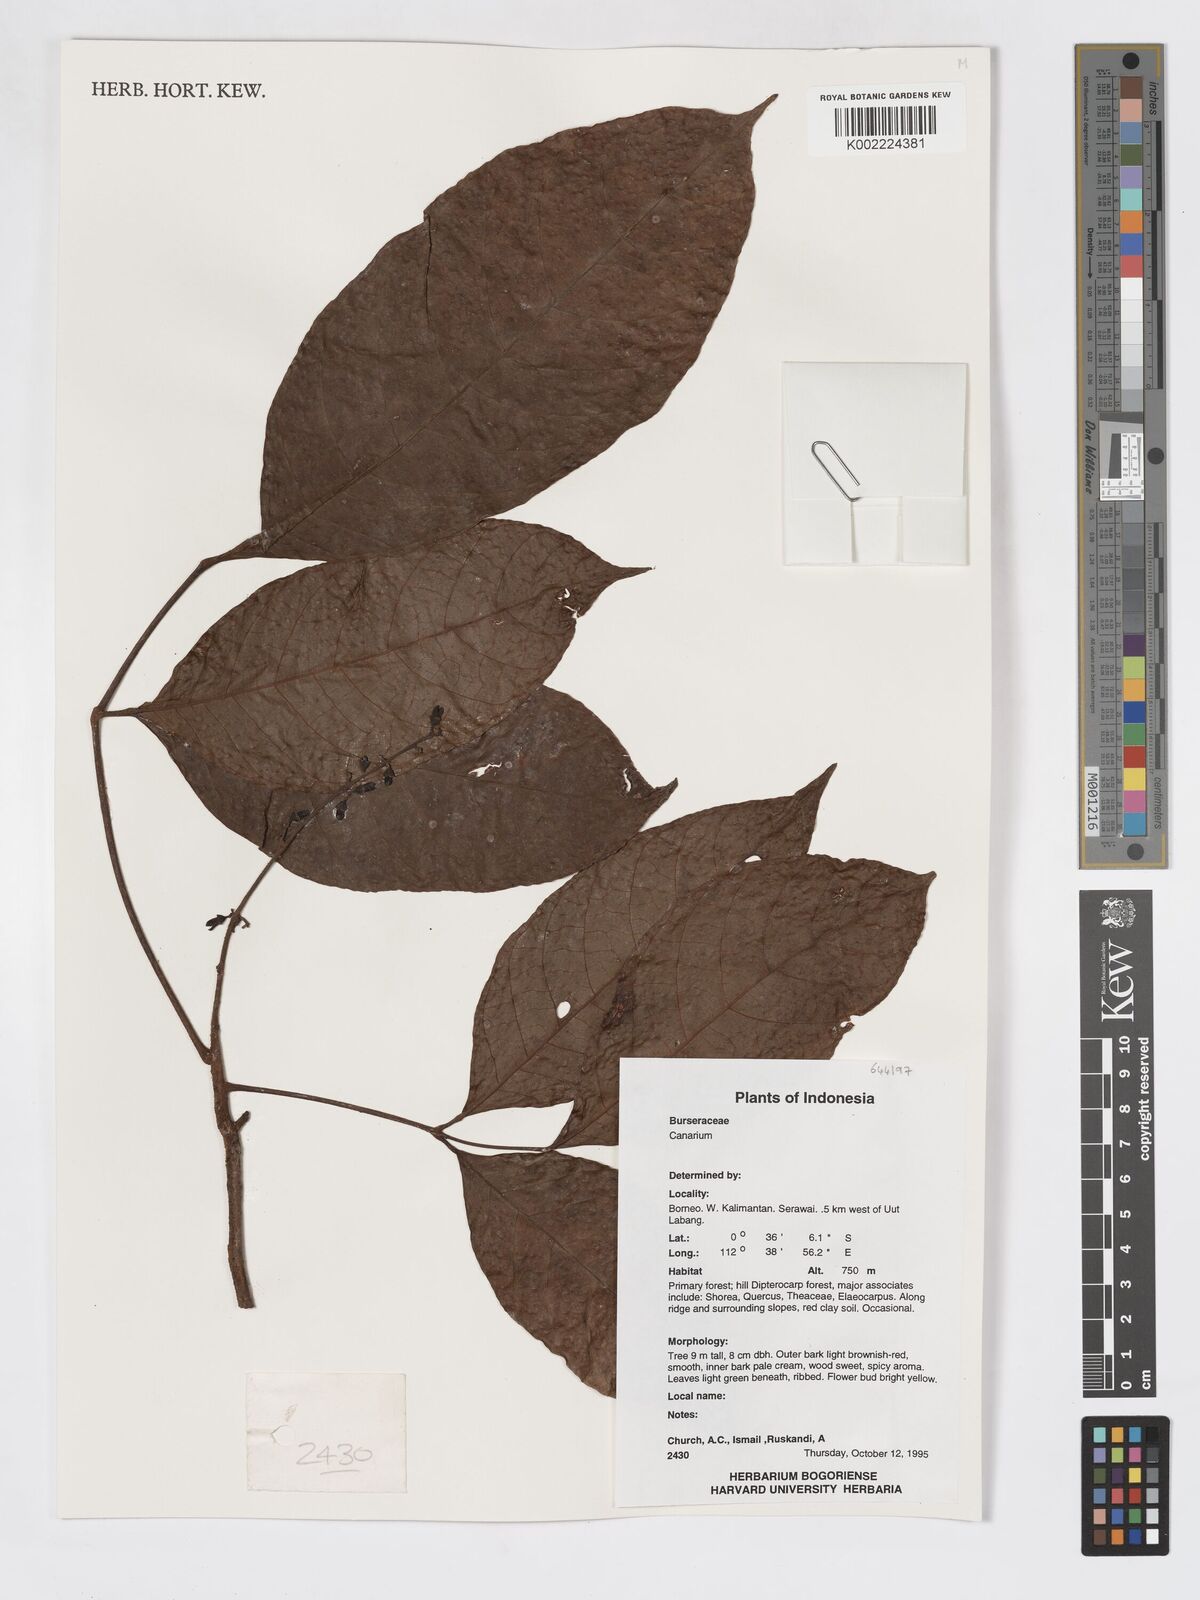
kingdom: Plantae
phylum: Tracheophyta
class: Magnoliopsida
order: Sapindales
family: Burseraceae
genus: Canarium
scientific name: Canarium
